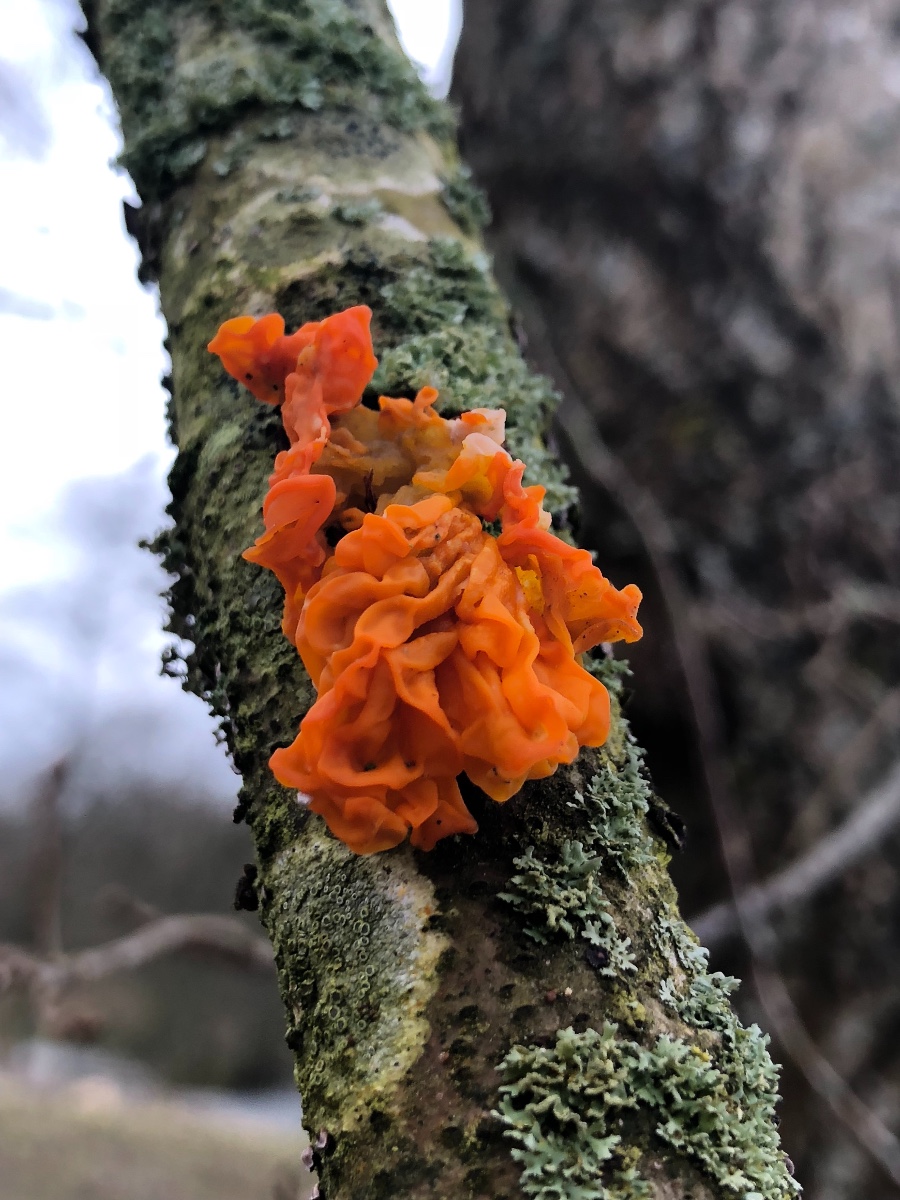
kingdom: Fungi
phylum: Basidiomycota
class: Tremellomycetes
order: Tremellales
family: Tremellaceae
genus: Tremella
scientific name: Tremella mesenterica
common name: gul bævresvamp
